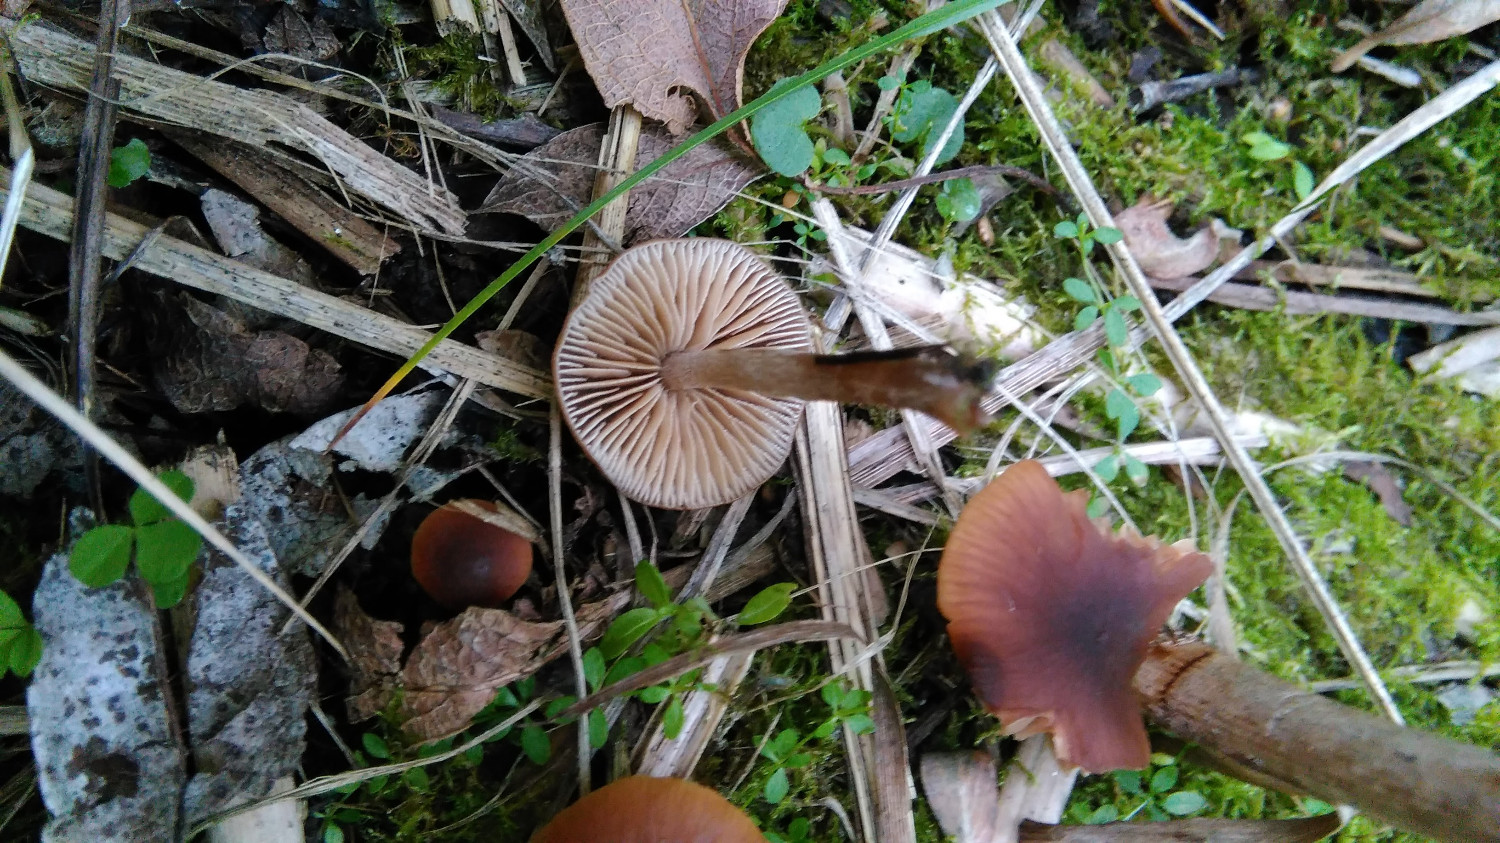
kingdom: Fungi
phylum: Basidiomycota
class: Agaricomycetes
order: Agaricales
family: Hymenogastraceae
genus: Naucoria
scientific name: Naucoria
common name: knaphat
